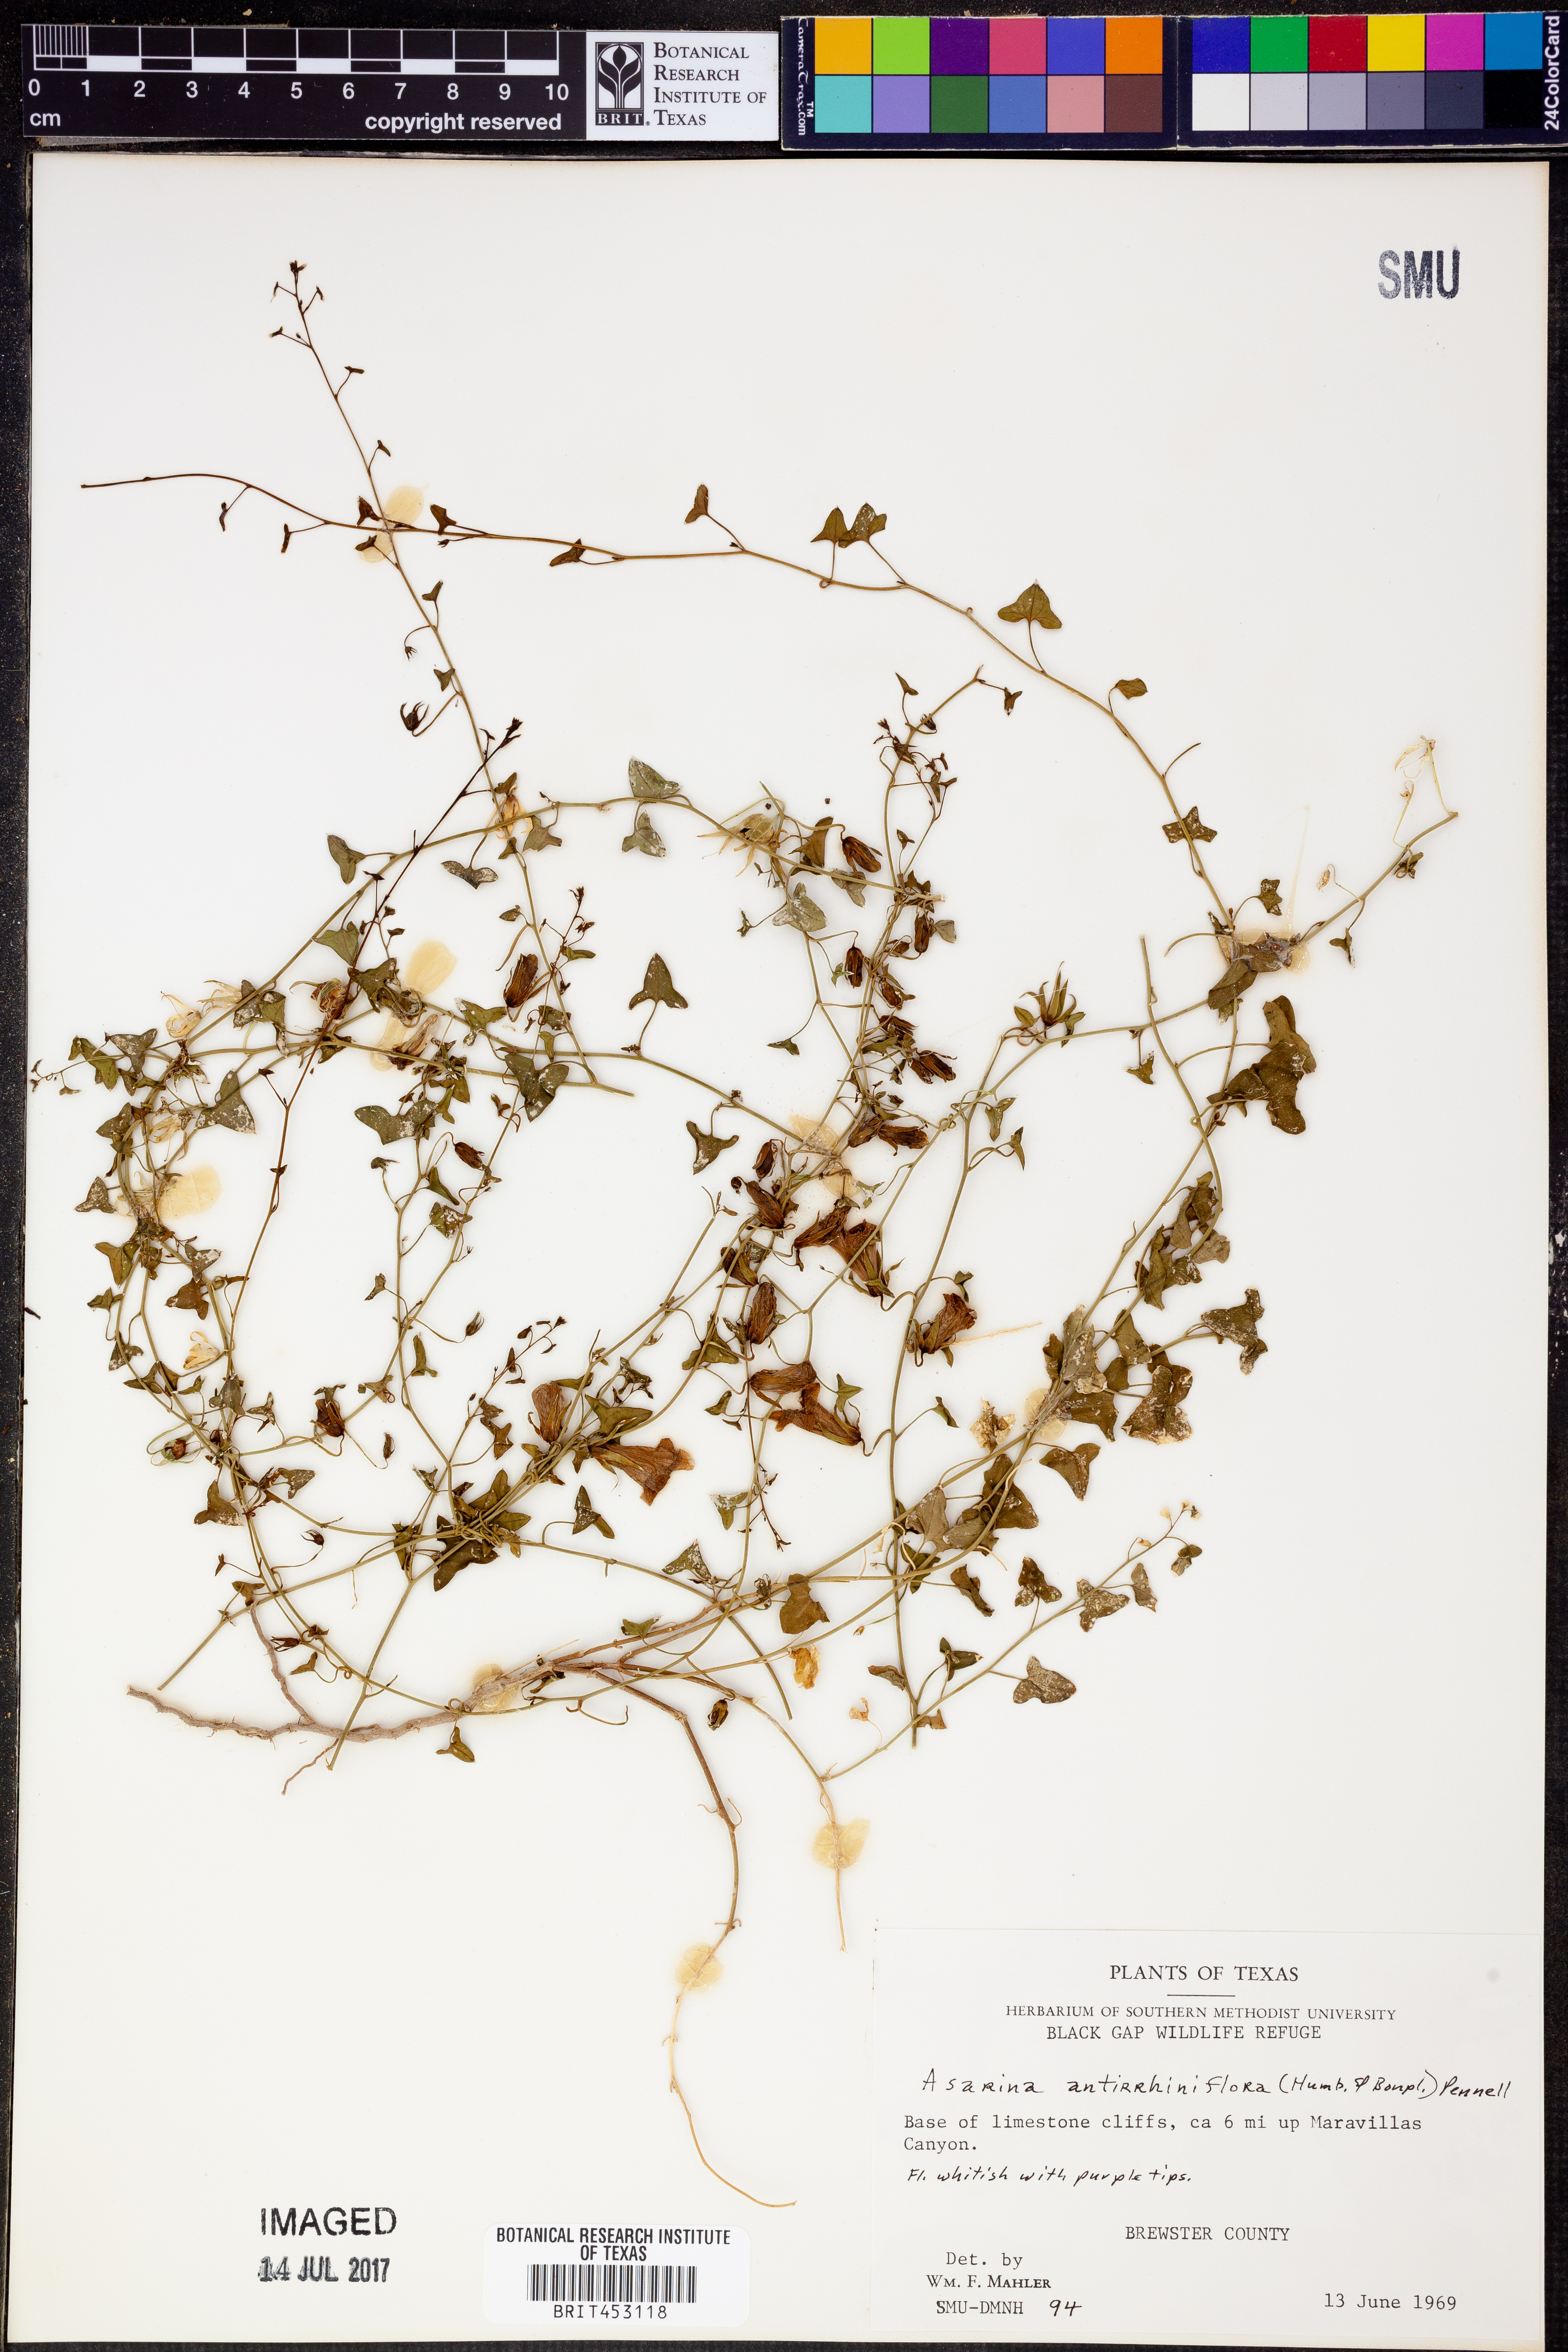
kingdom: Plantae
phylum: Tracheophyta
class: Magnoliopsida
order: Lamiales
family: Plantaginaceae
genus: Maurandella
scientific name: Maurandella antirrhiniflora
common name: Violet twining-snapdragon
